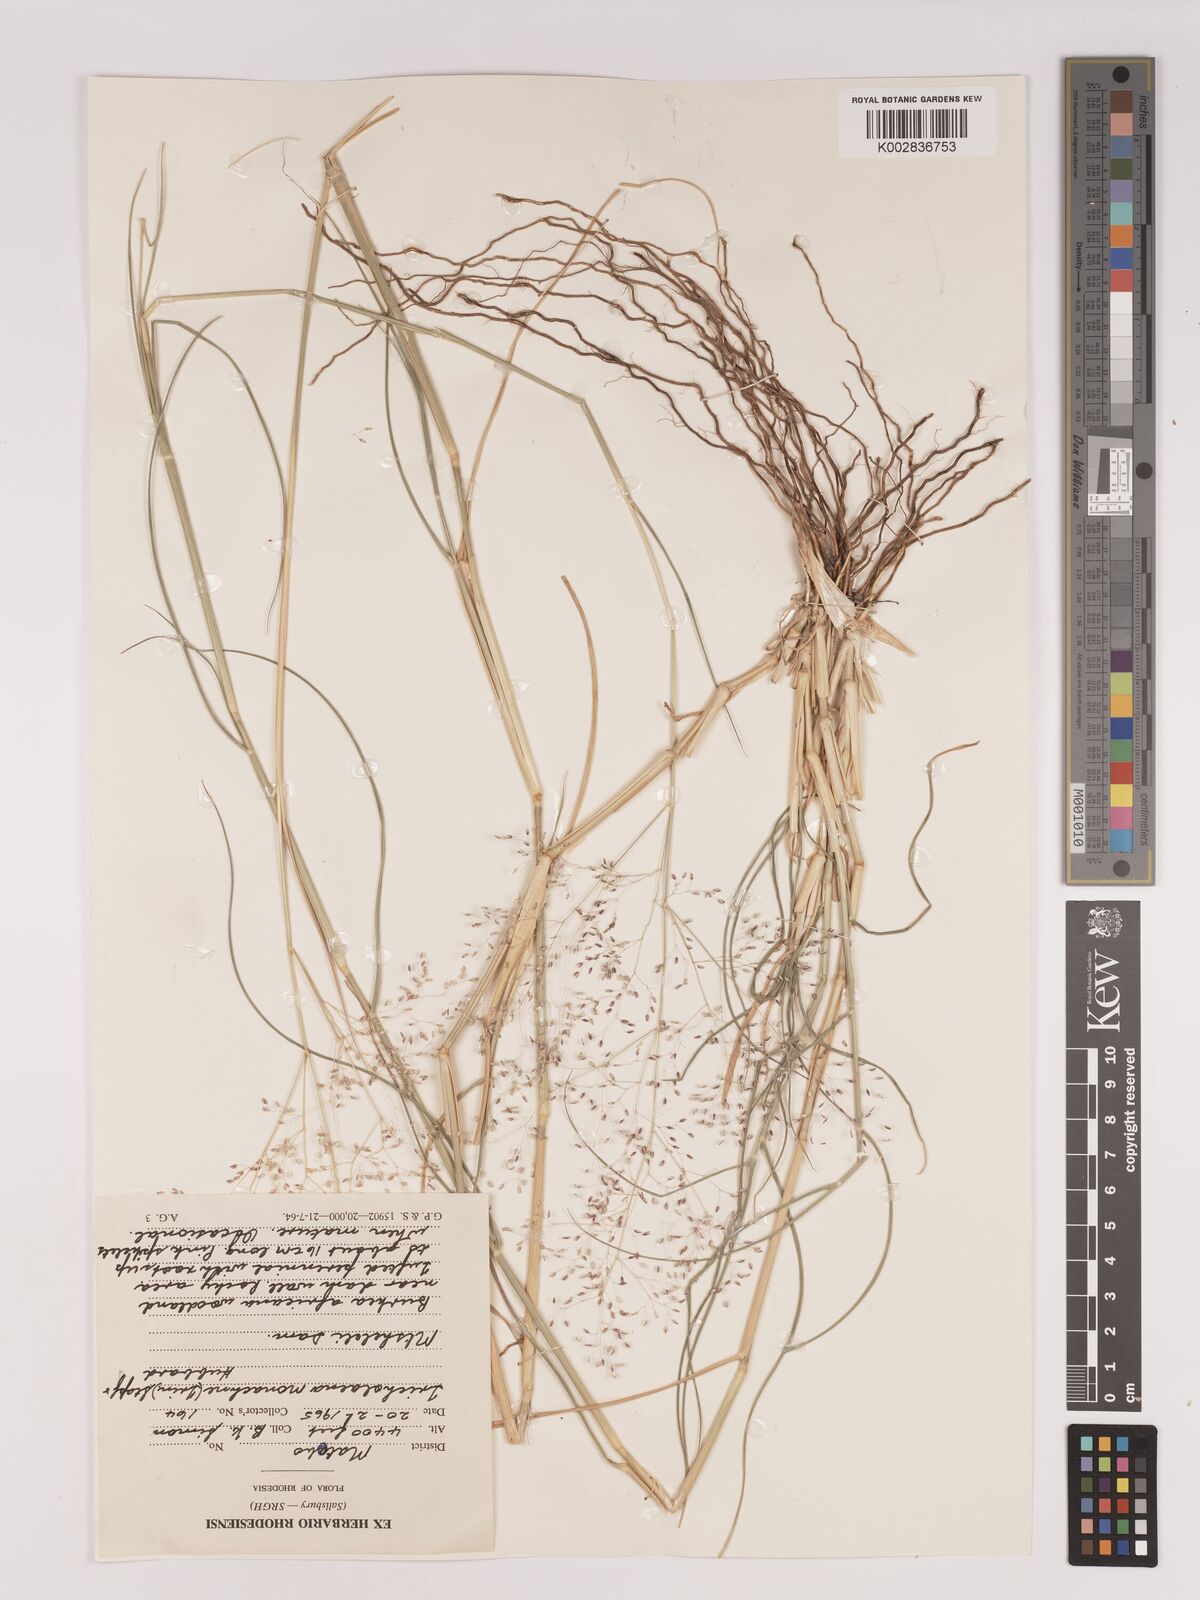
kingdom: Plantae
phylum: Tracheophyta
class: Liliopsida
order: Poales
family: Poaceae
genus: Tricholaena
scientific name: Tricholaena monachne
